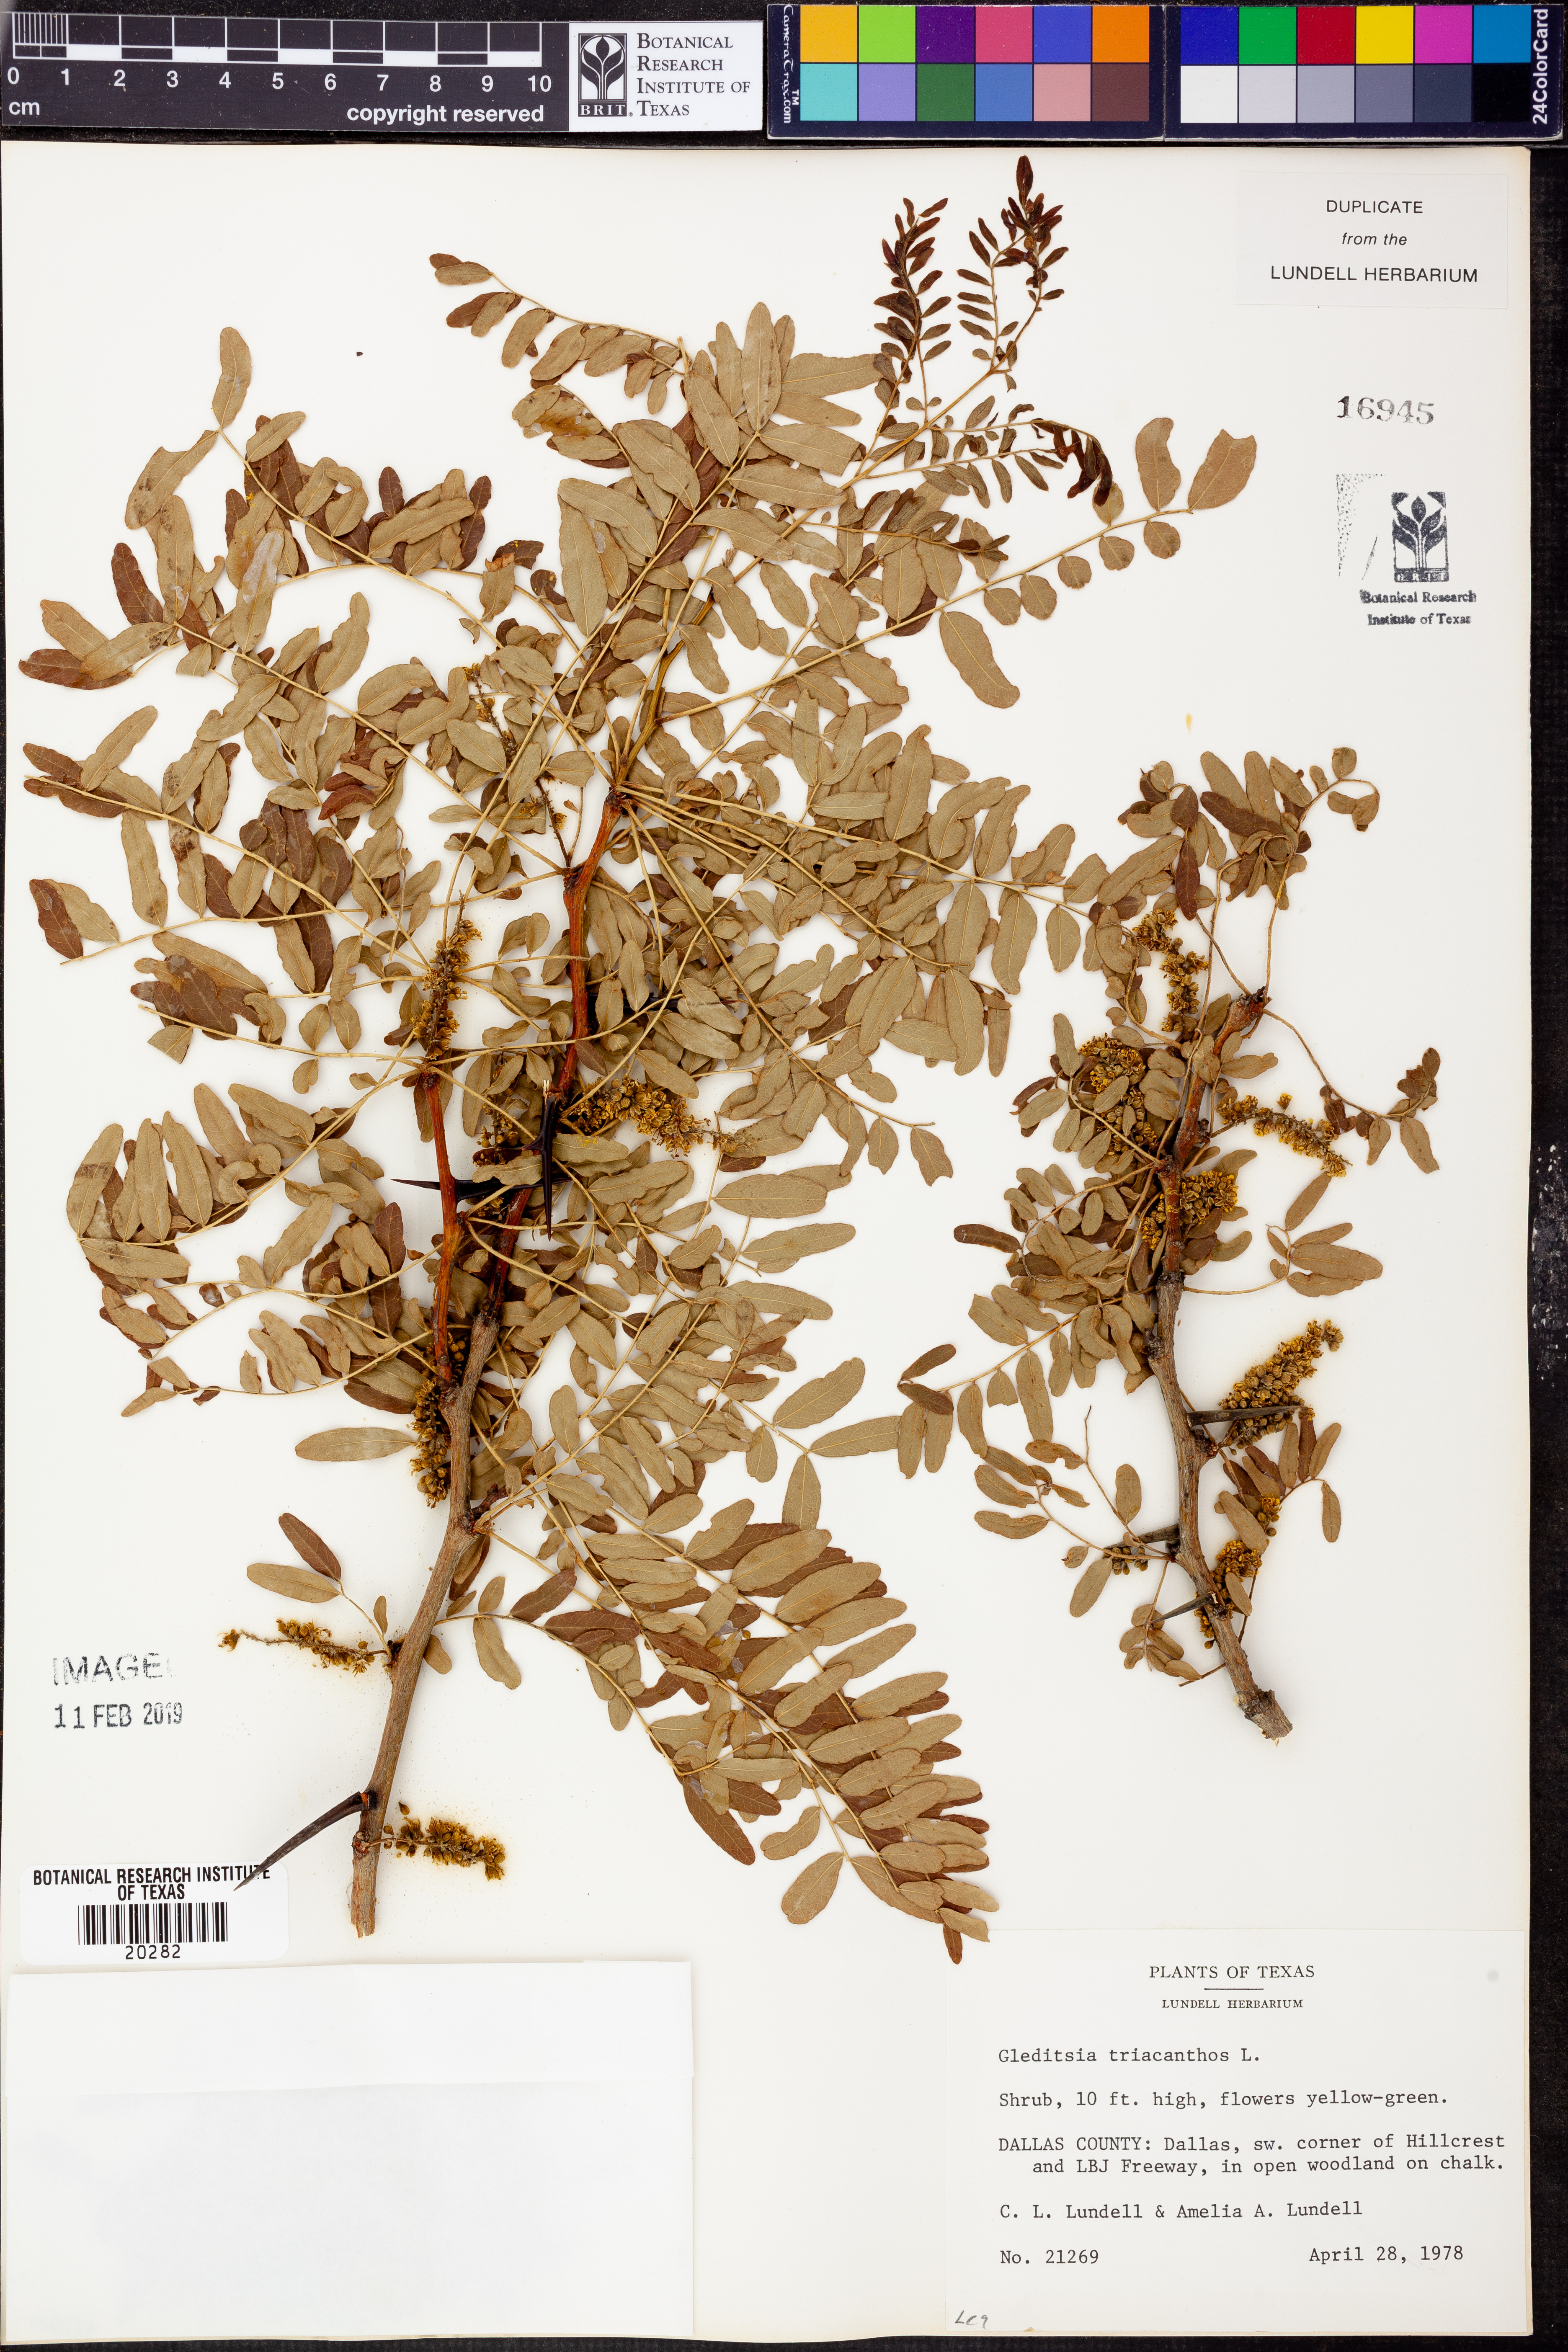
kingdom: Plantae
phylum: Tracheophyta
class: Magnoliopsida
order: Fabales
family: Fabaceae
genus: Gleditsia
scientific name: Gleditsia triacanthos
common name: Common honeylocust
